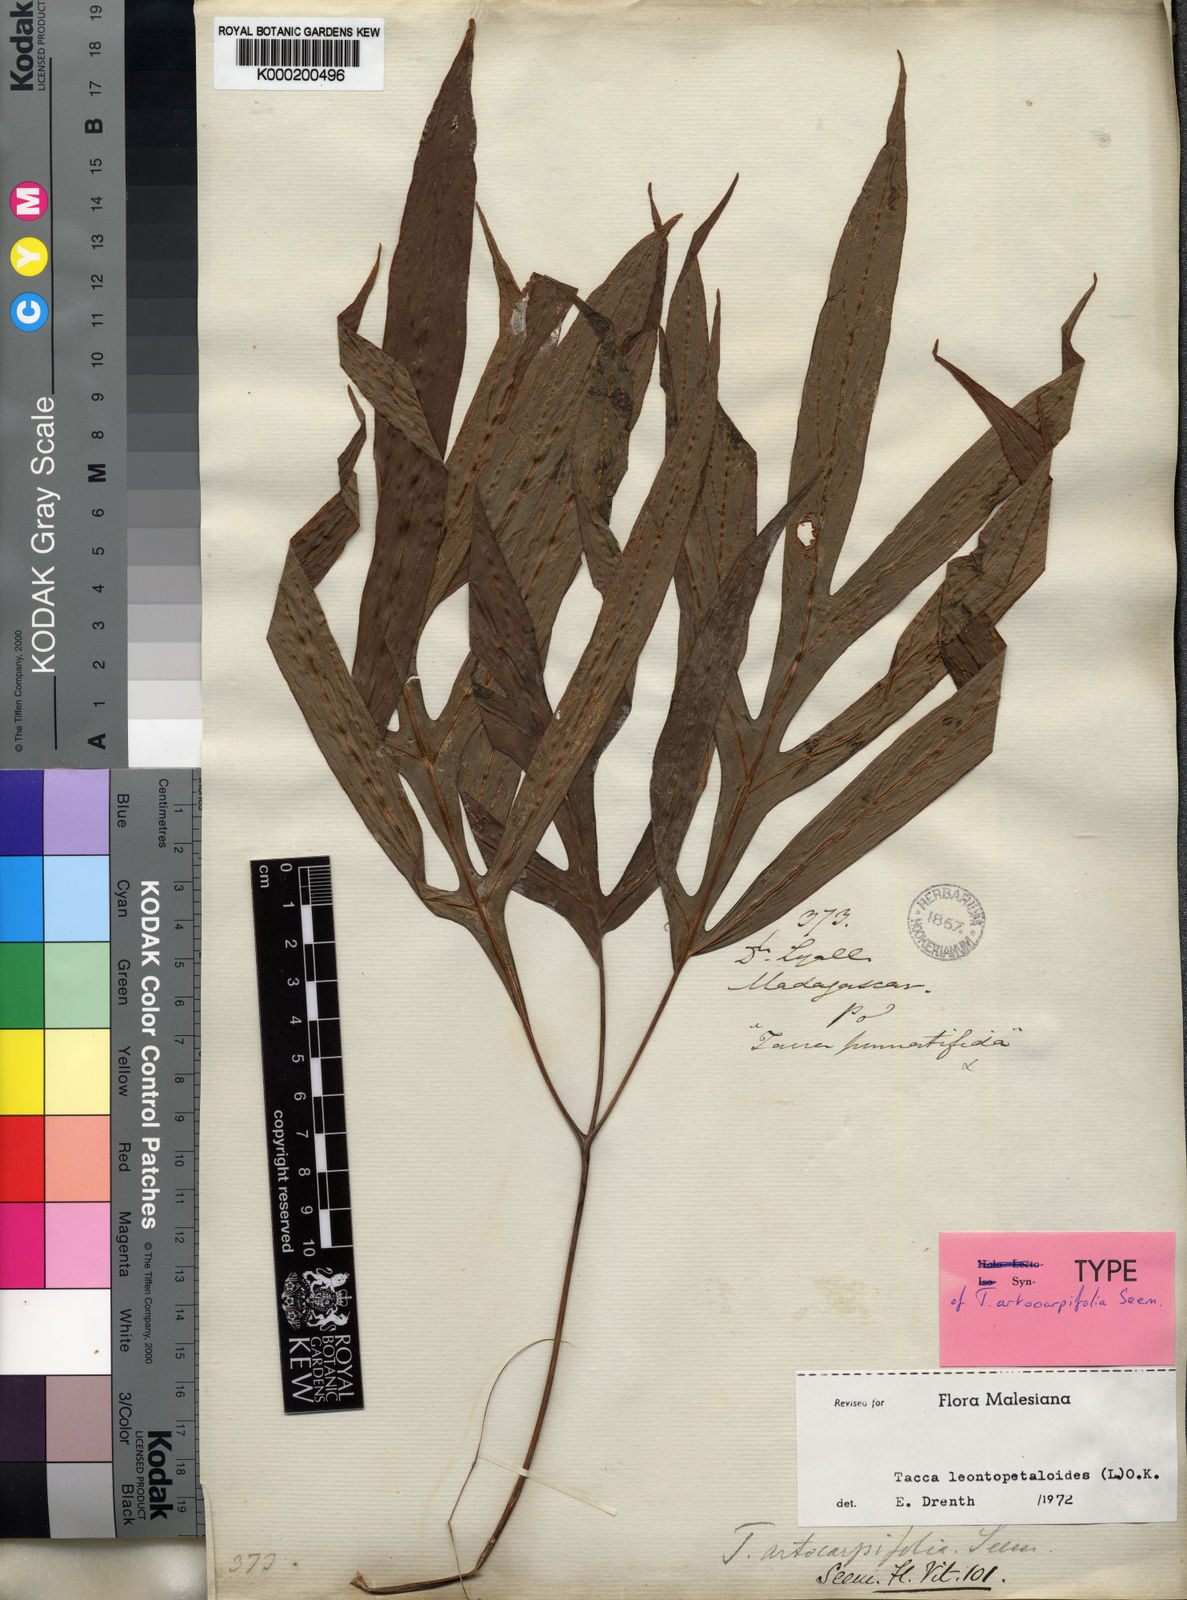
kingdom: Plantae
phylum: Tracheophyta
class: Liliopsida
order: Dioscoreales
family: Dioscoreaceae
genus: Tacca
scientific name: Tacca leontopetaloides
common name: Arrowroot
